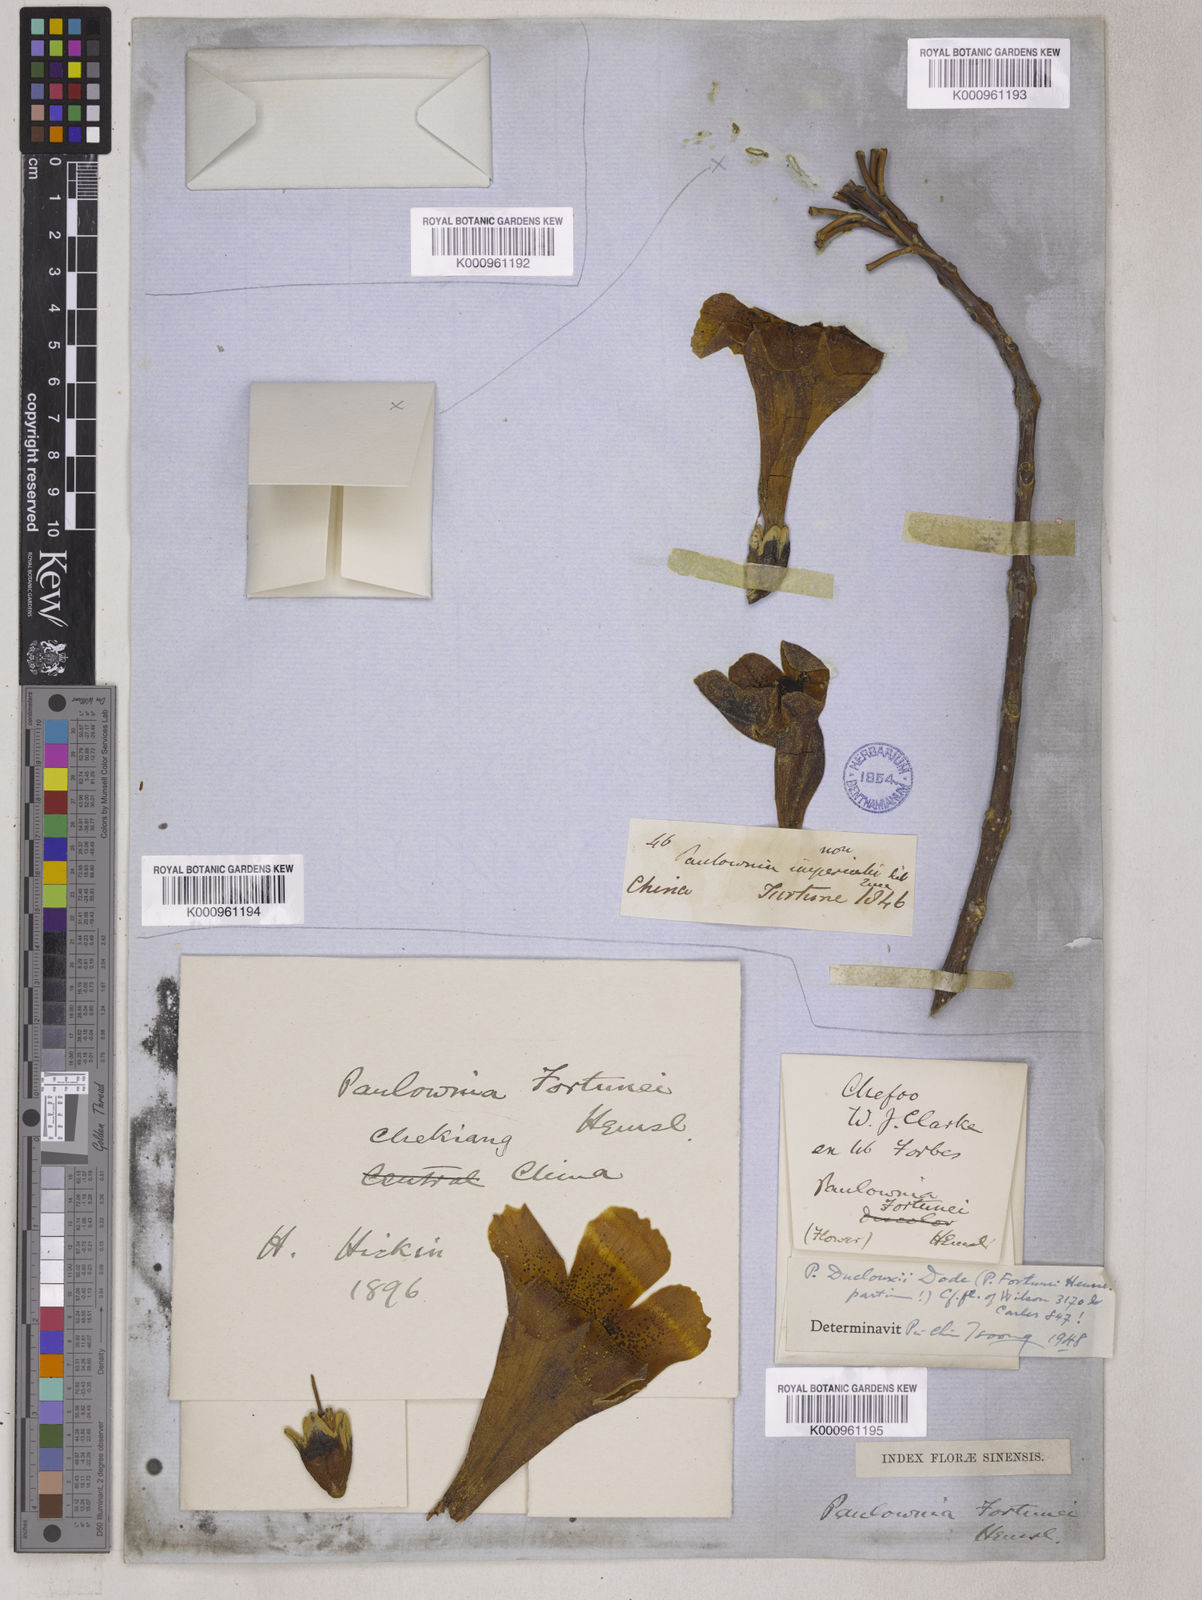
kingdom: Plantae
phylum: Tracheophyta
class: Magnoliopsida
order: Lamiales
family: Paulowniaceae
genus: Paulownia
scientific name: Paulownia fortunei
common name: Dragontree
